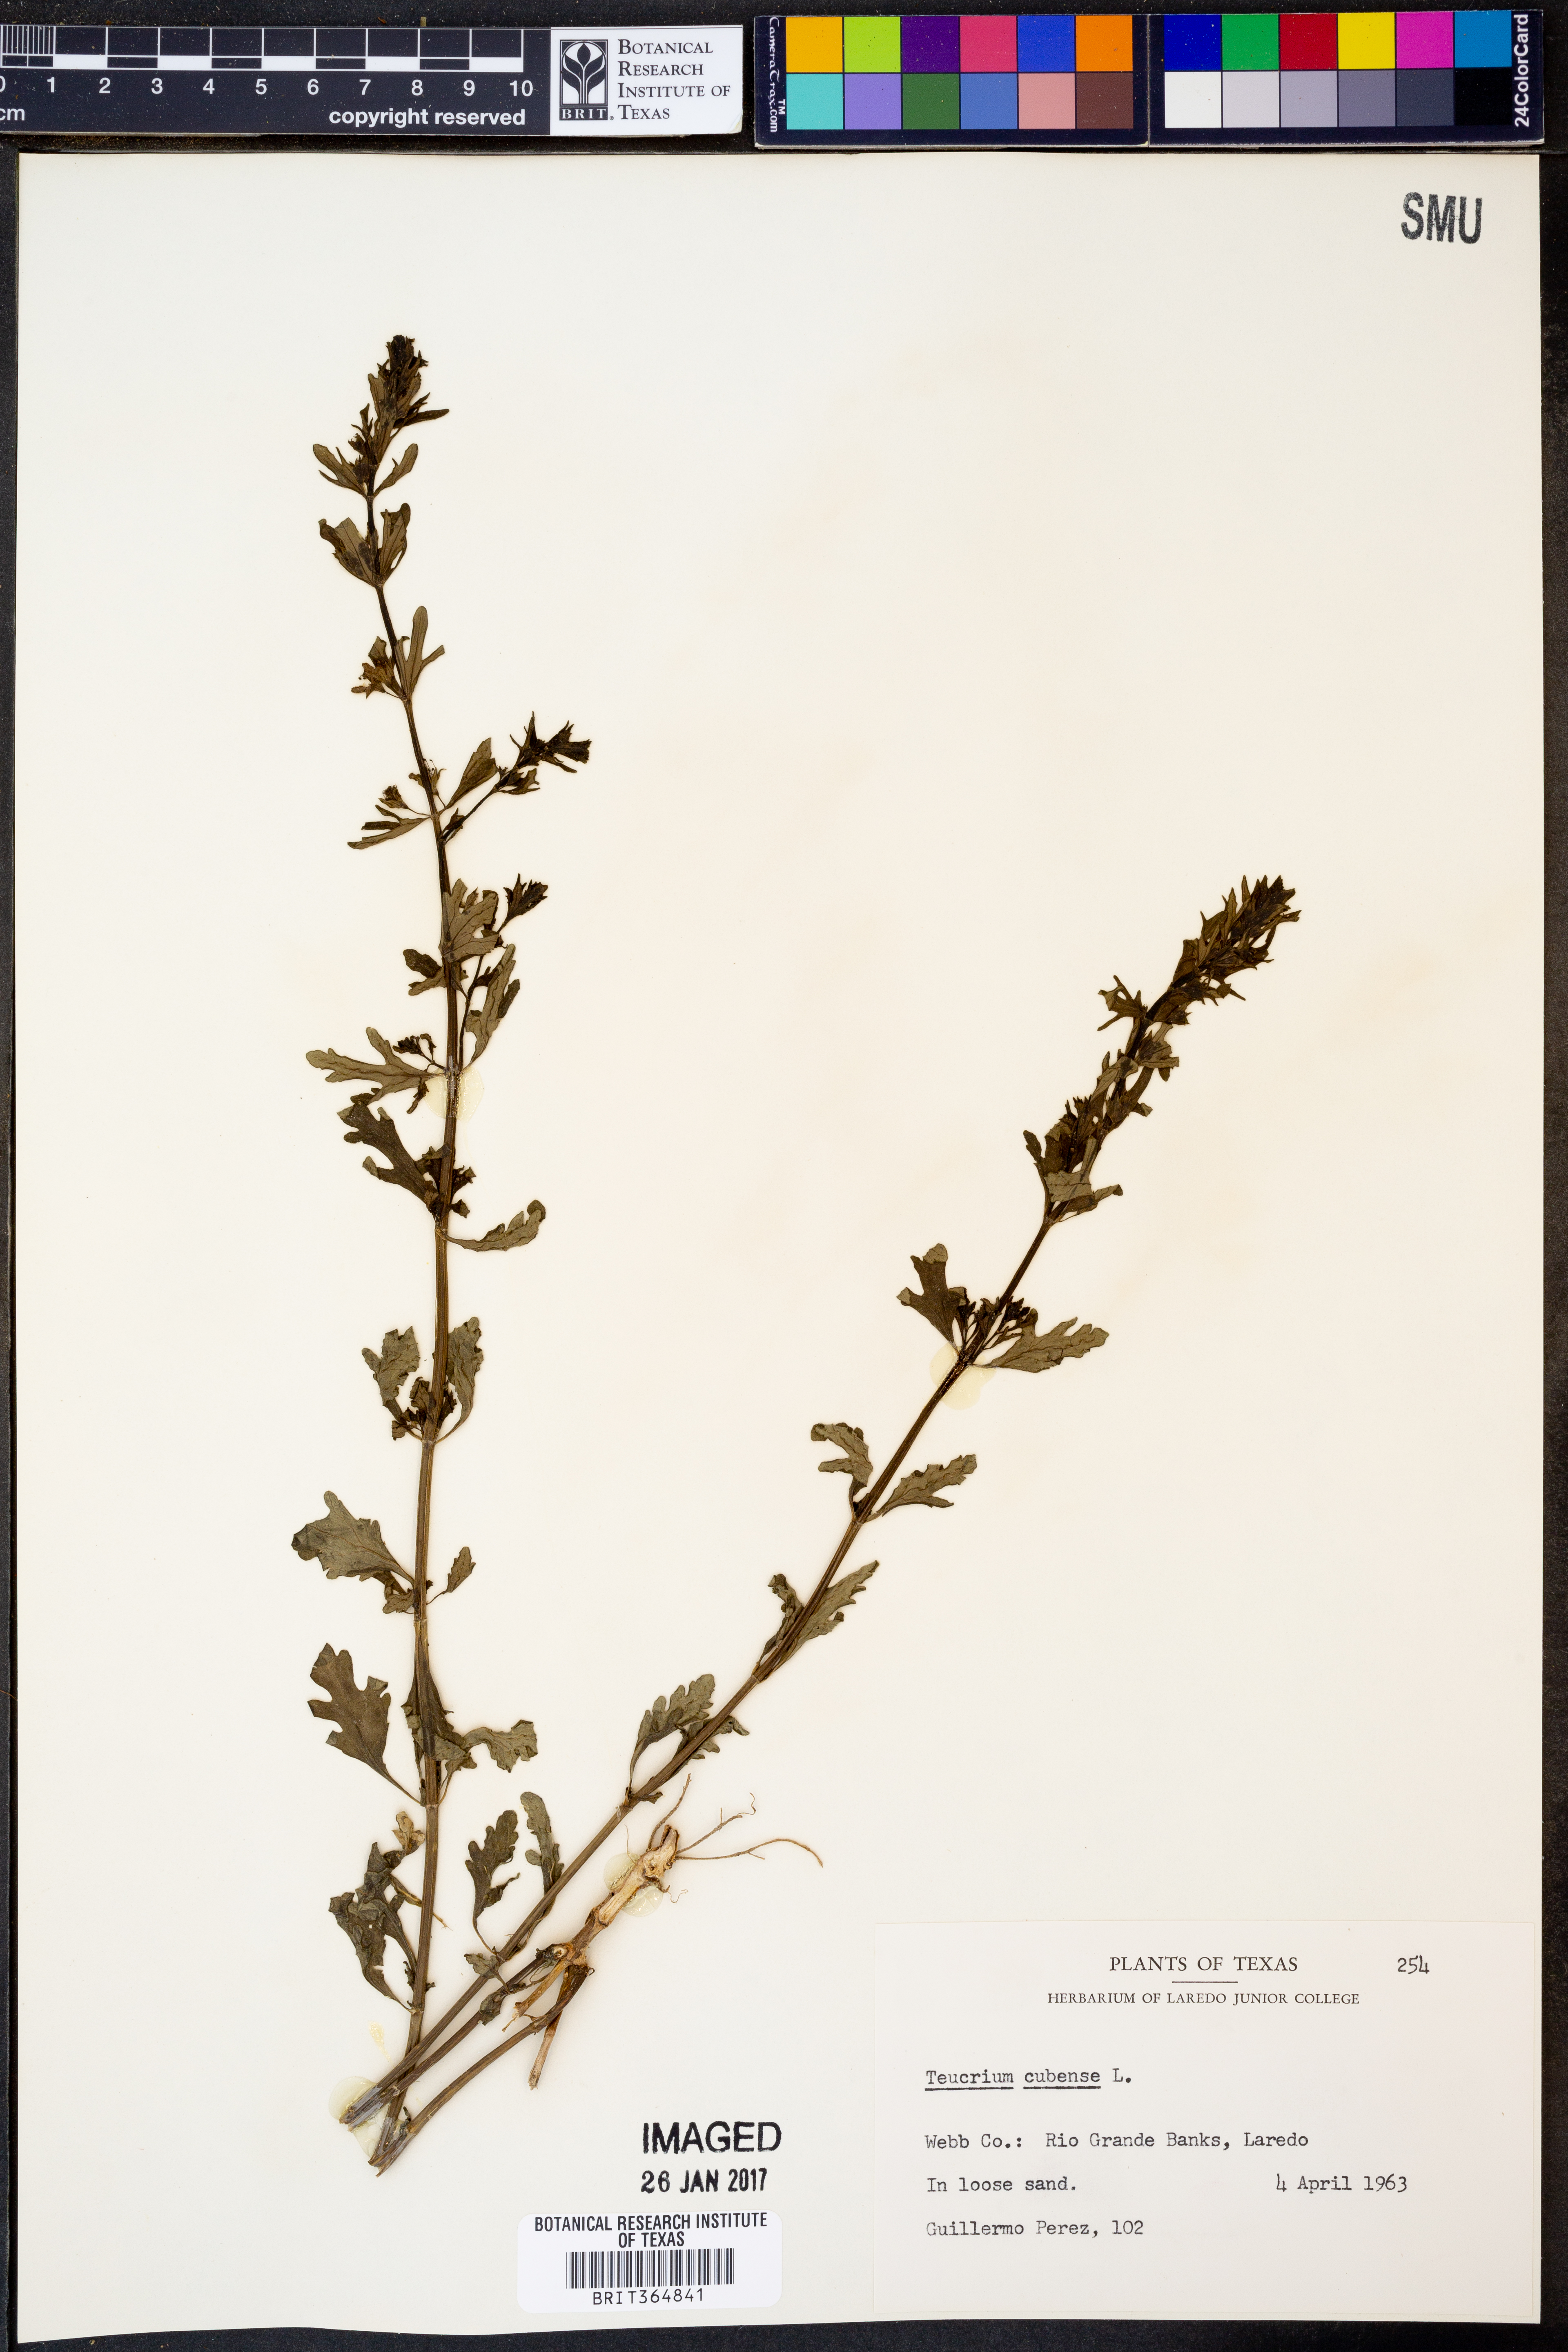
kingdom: Plantae
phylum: Tracheophyta
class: Magnoliopsida
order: Lamiales
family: Lamiaceae
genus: Teucrium
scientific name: Teucrium cubense
